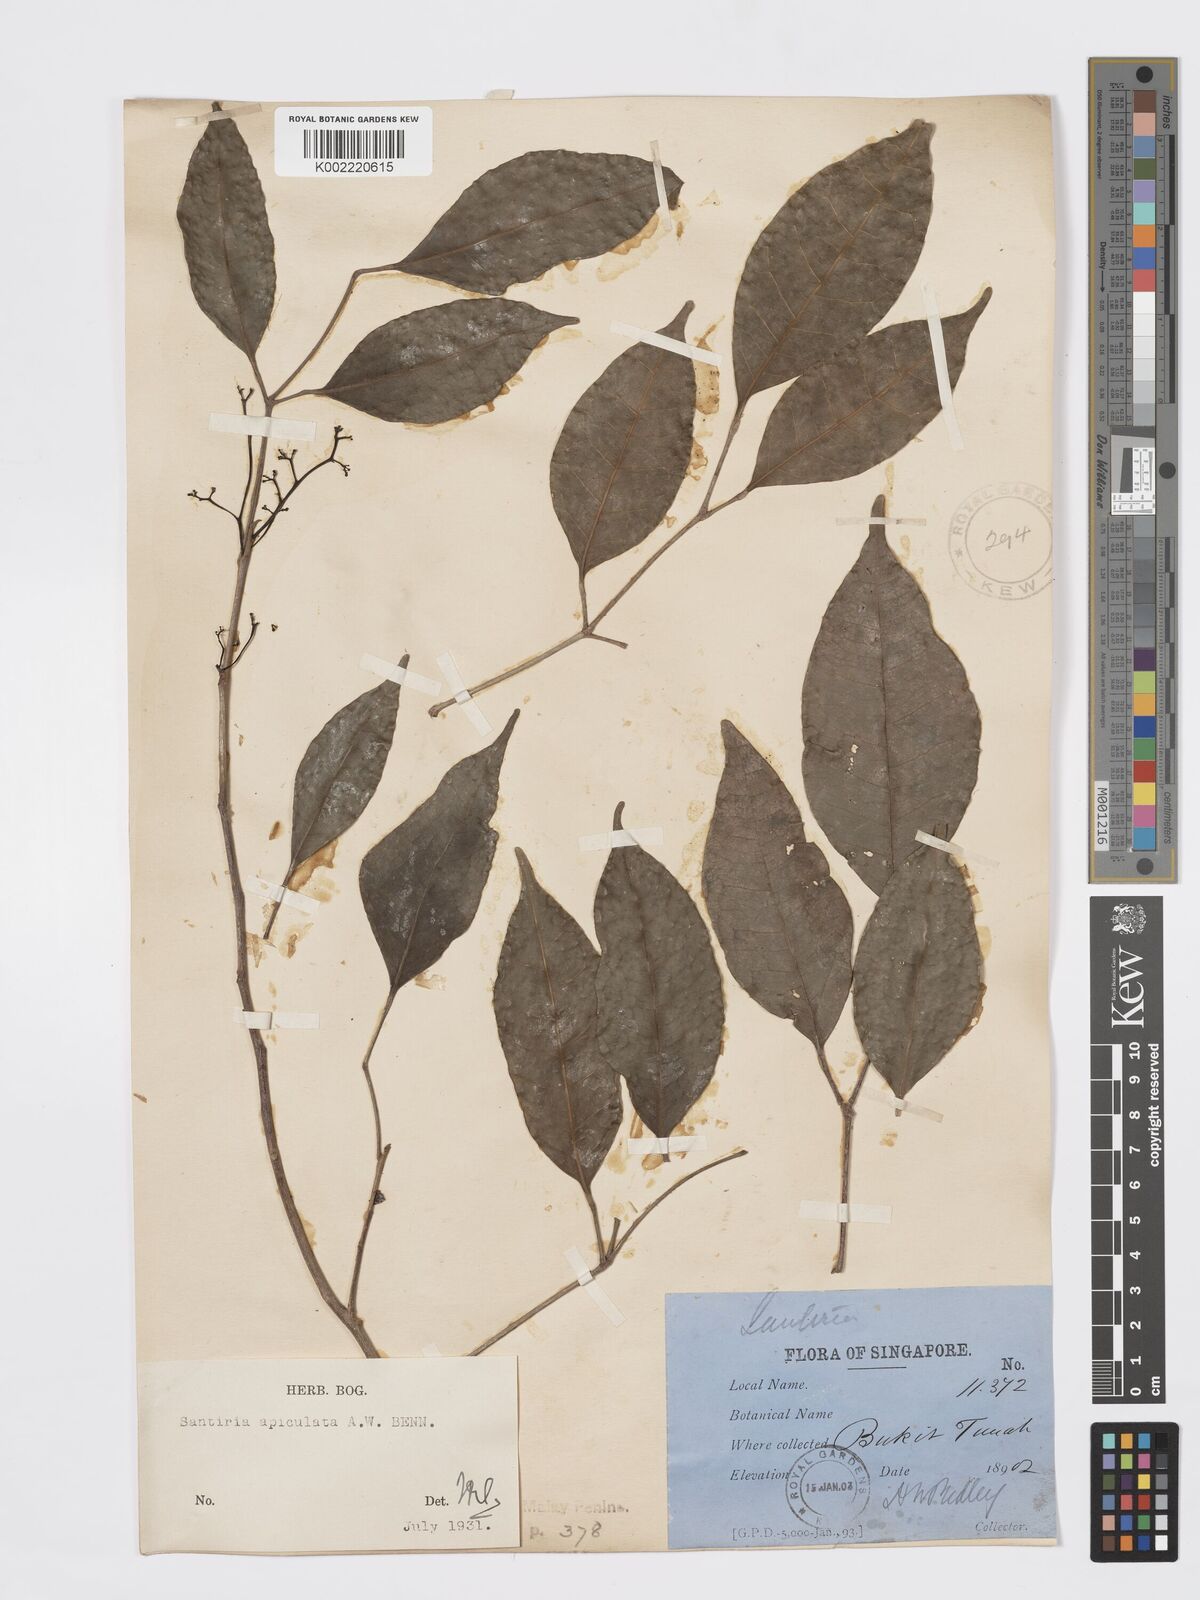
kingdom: Plantae
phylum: Tracheophyta
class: Magnoliopsida
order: Sapindales
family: Burseraceae
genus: Santiria
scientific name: Santiria apiculata
